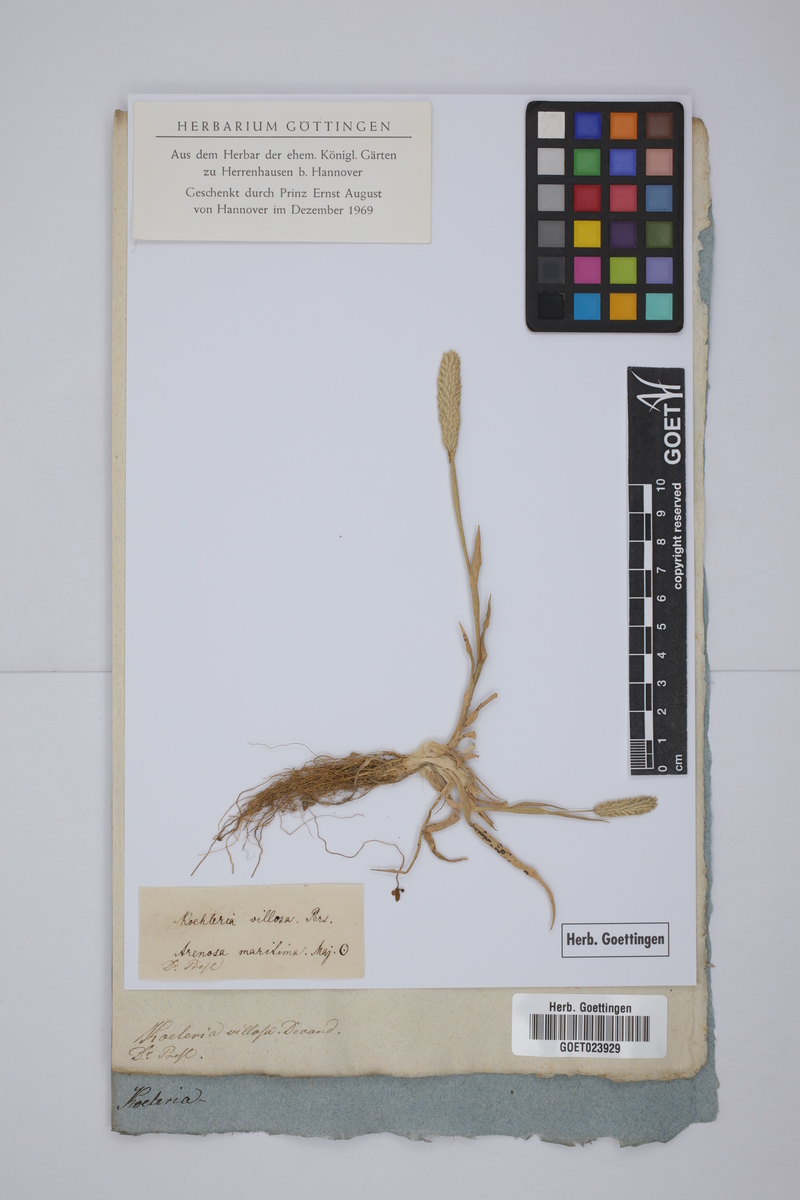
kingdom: Plantae
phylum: Tracheophyta
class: Liliopsida
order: Poales
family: Poaceae
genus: Rostraria
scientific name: Rostraria litorea
